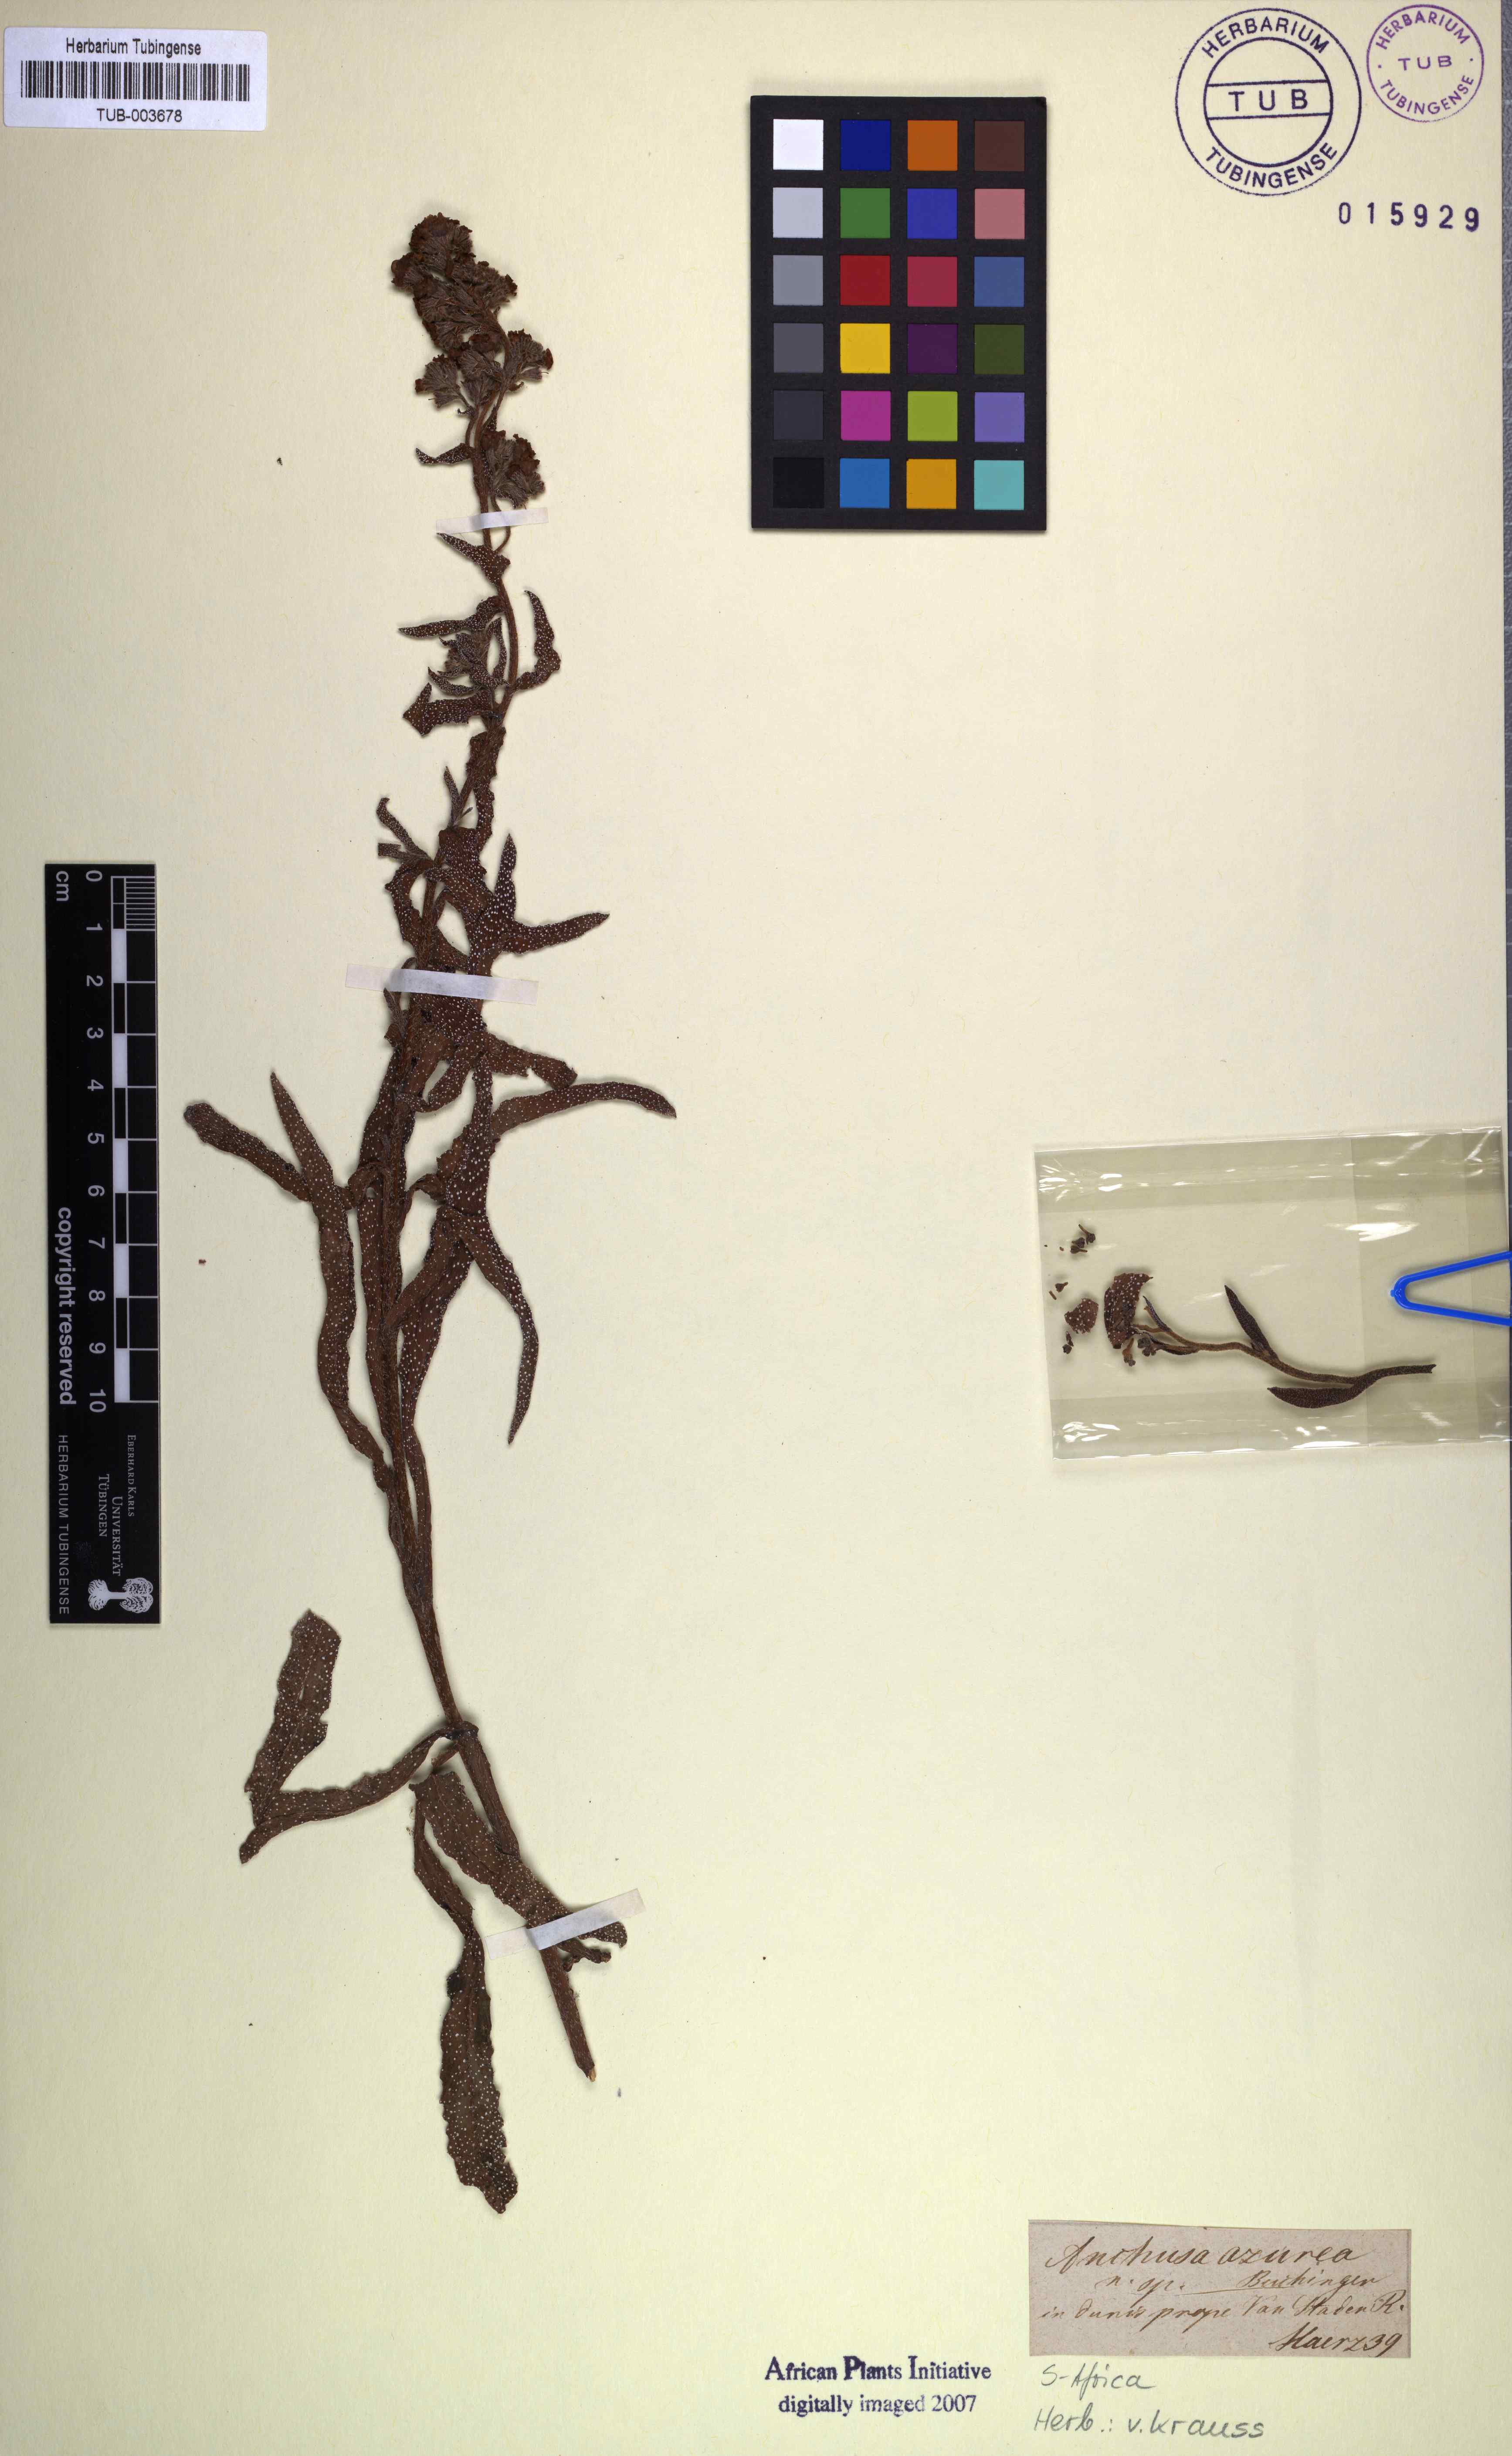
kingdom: Plantae
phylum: Tracheophyta
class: Magnoliopsida
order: Boraginales
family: Boraginaceae
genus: Anchusa
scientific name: Anchusa capensis
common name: Cape bugloss
